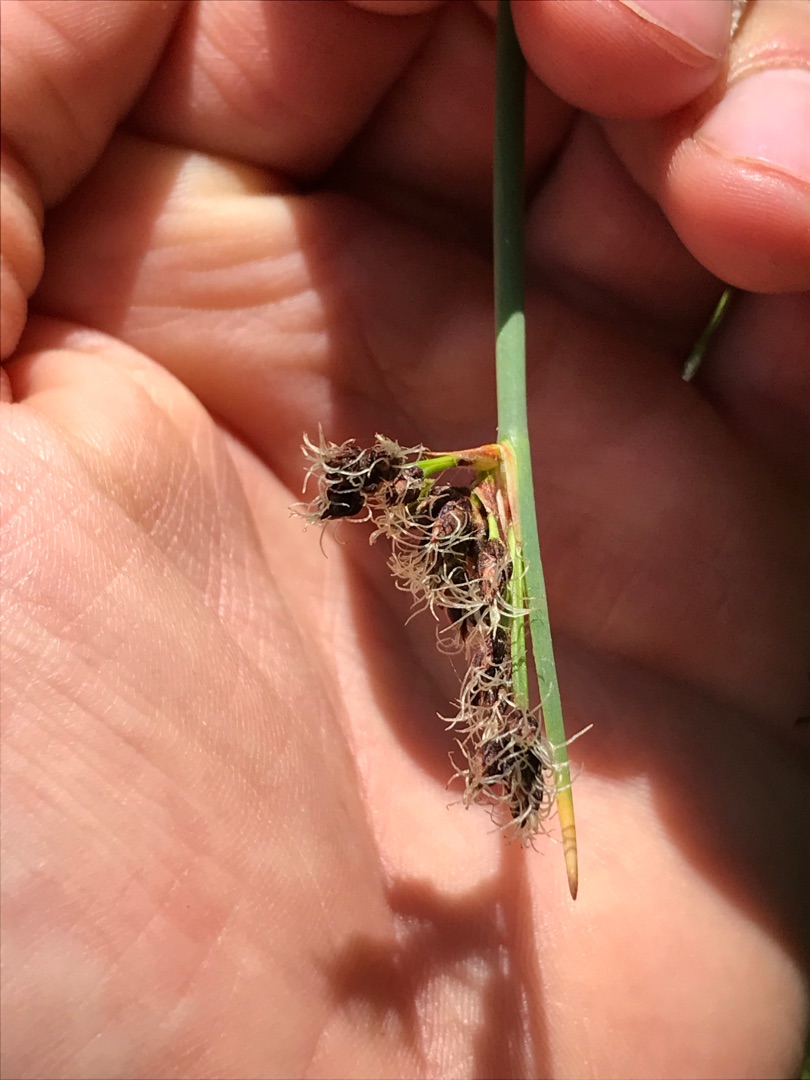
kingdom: Plantae
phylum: Tracheophyta
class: Liliopsida
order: Poales
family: Cyperaceae
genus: Schoenoplectus
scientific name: Schoenoplectus tabernaemontani
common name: Blågrøn kogleaks
